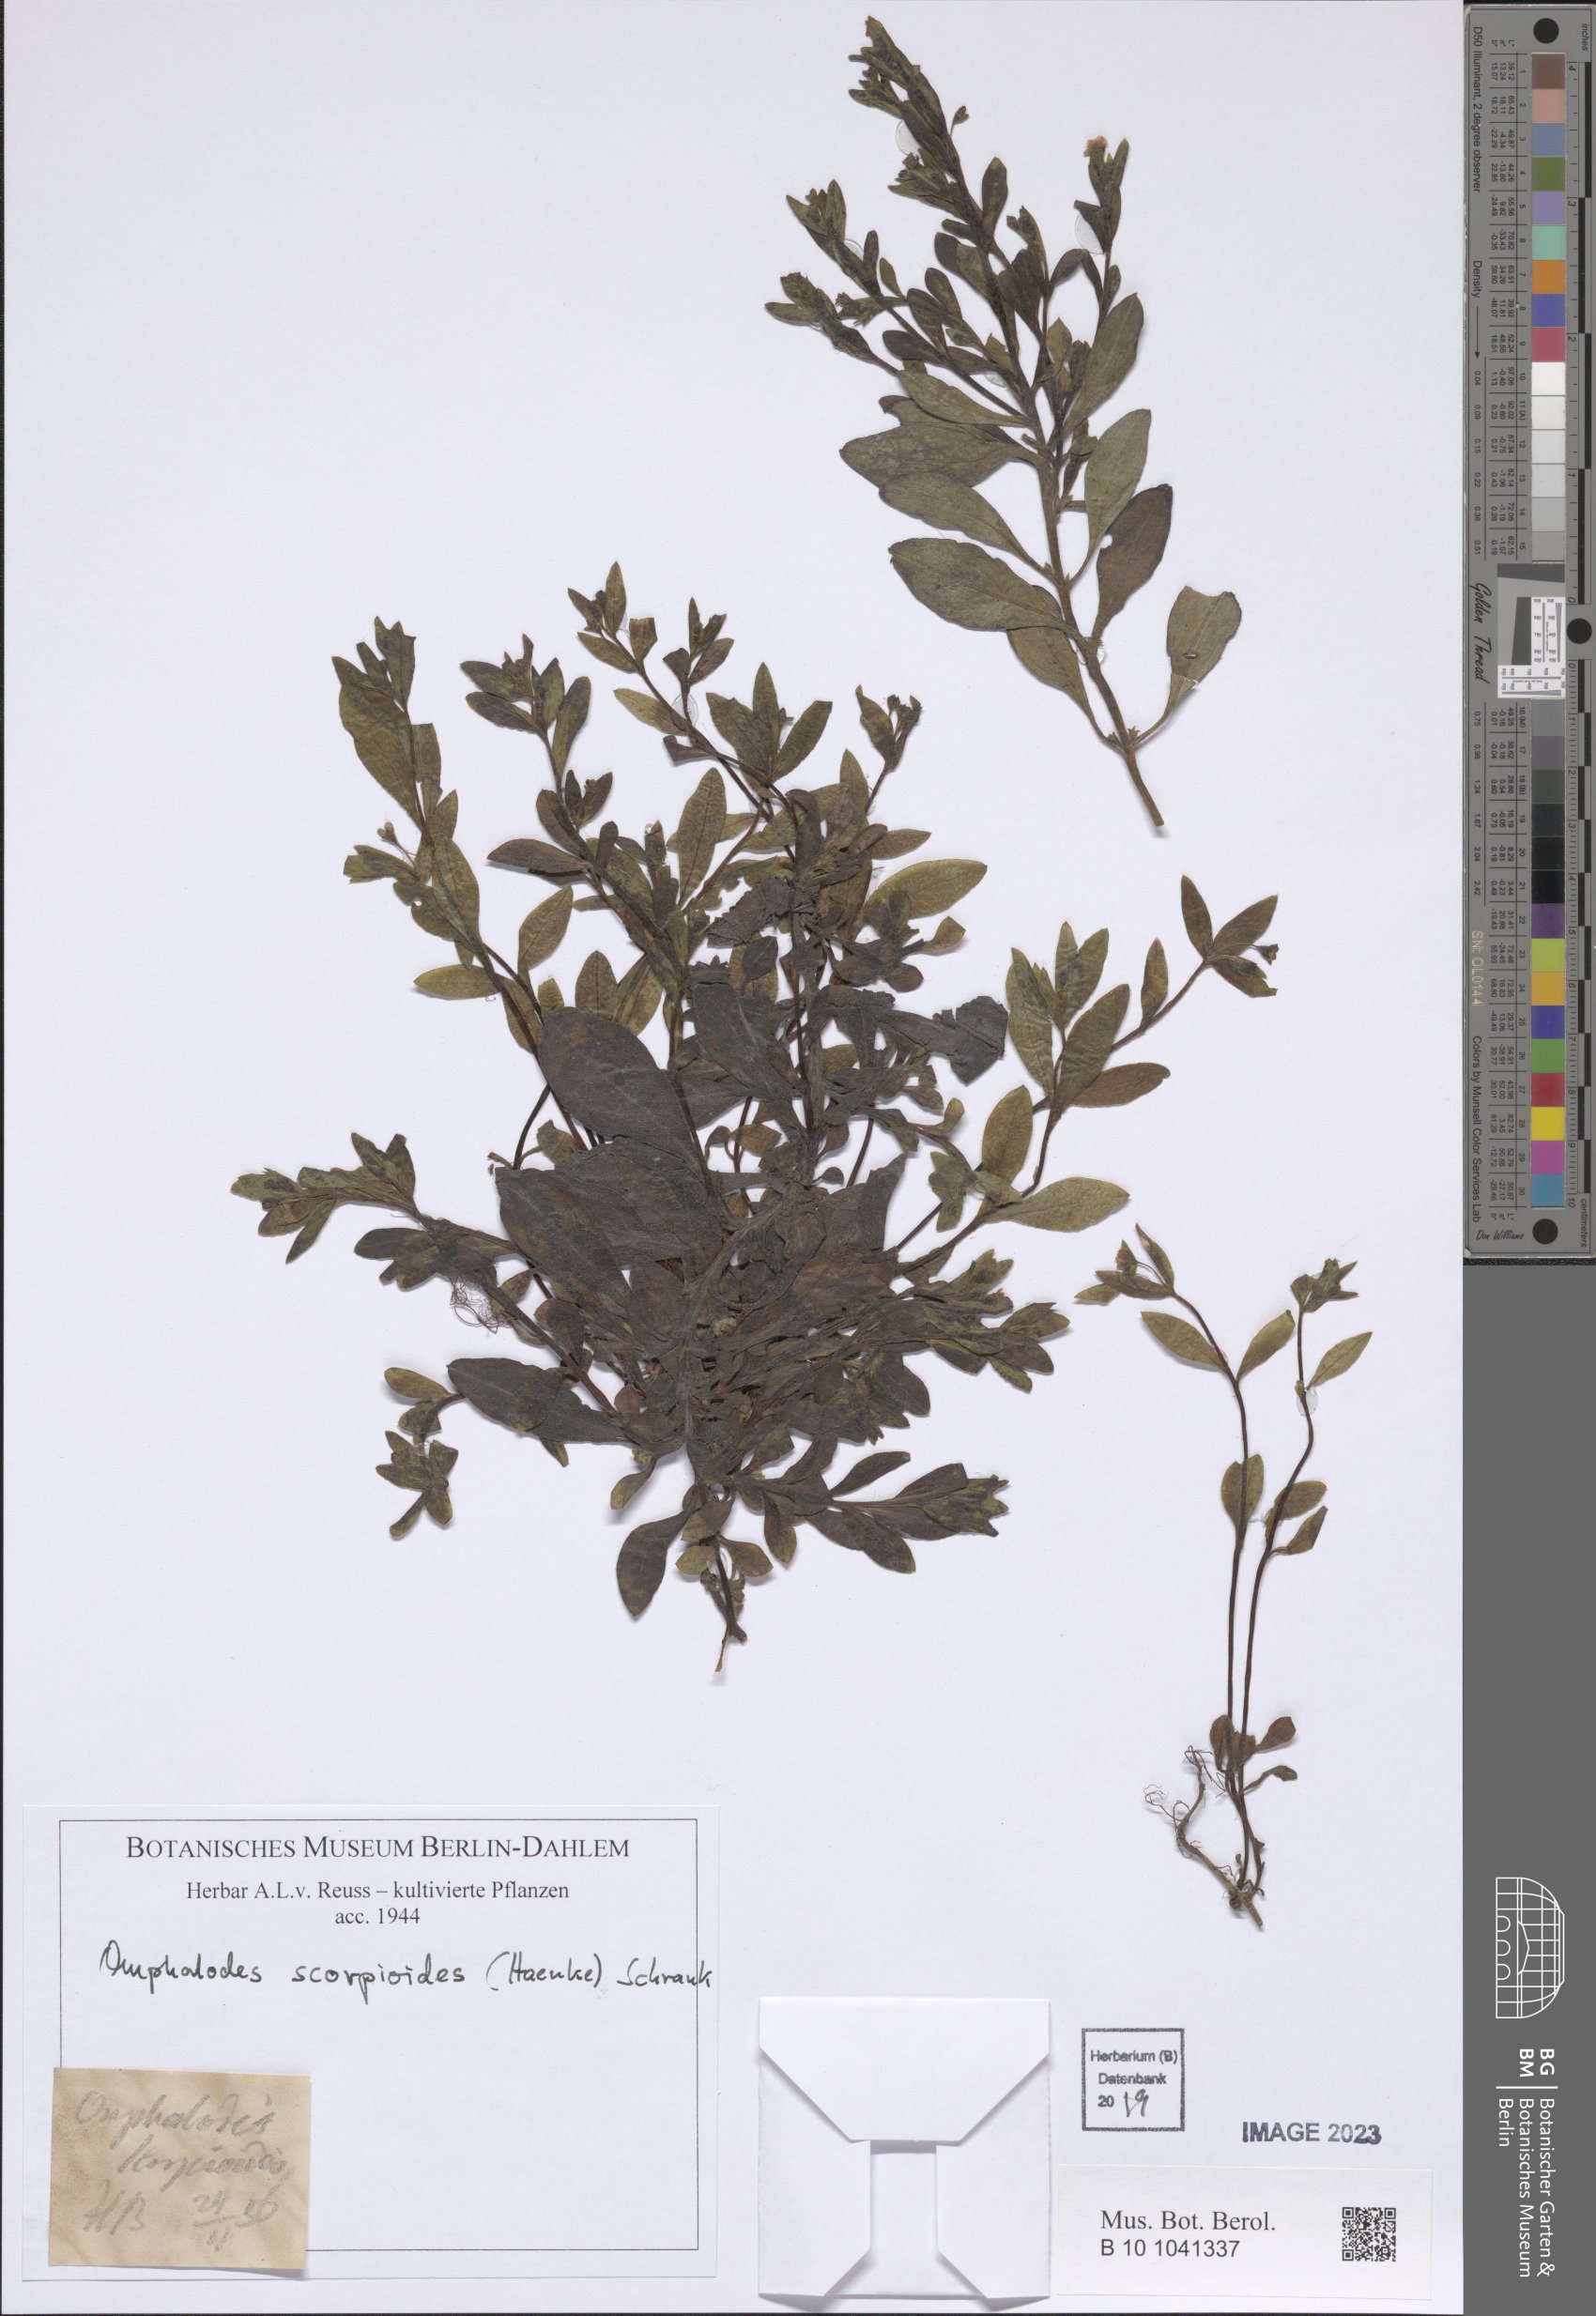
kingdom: Plantae
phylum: Tracheophyta
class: Magnoliopsida
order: Boraginales
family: Boraginaceae
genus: Memoremea
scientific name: Memoremea scorpioides
